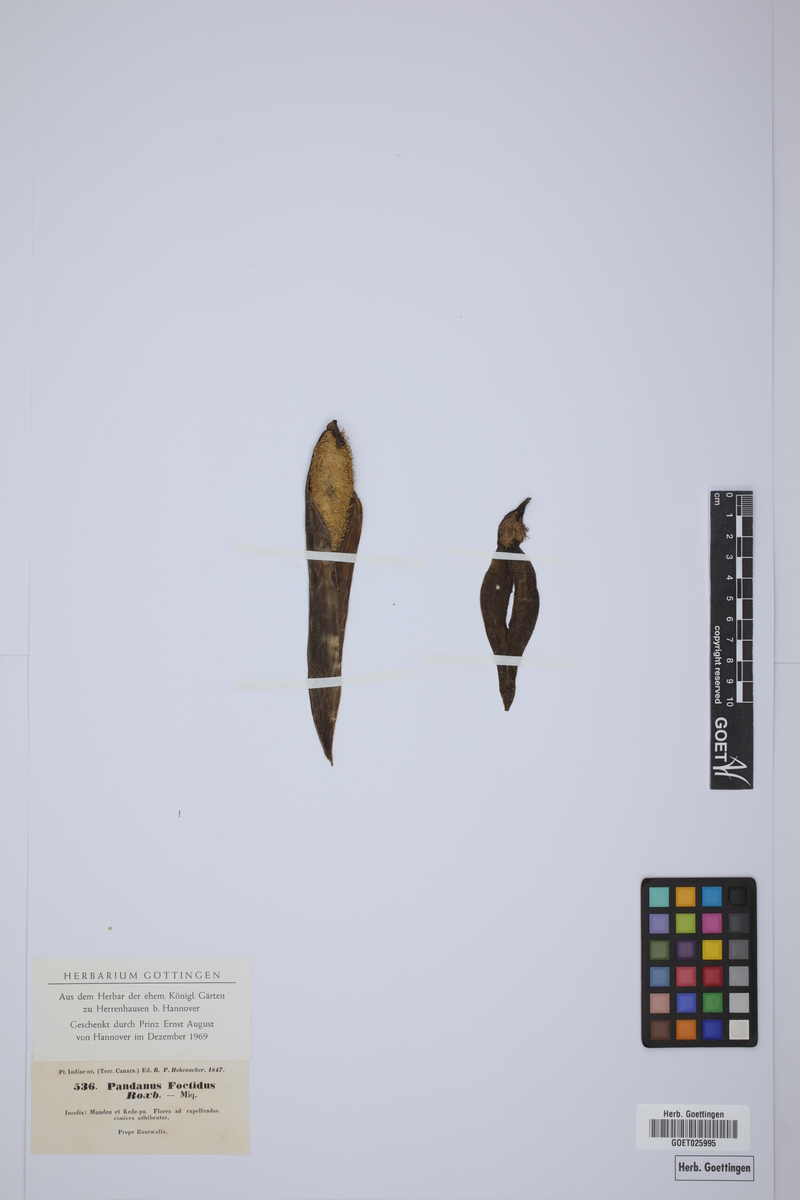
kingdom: Plantae
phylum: Tracheophyta
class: Liliopsida
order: Pandanales
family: Pandanaceae
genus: Benstonea
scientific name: Benstonea foetida
